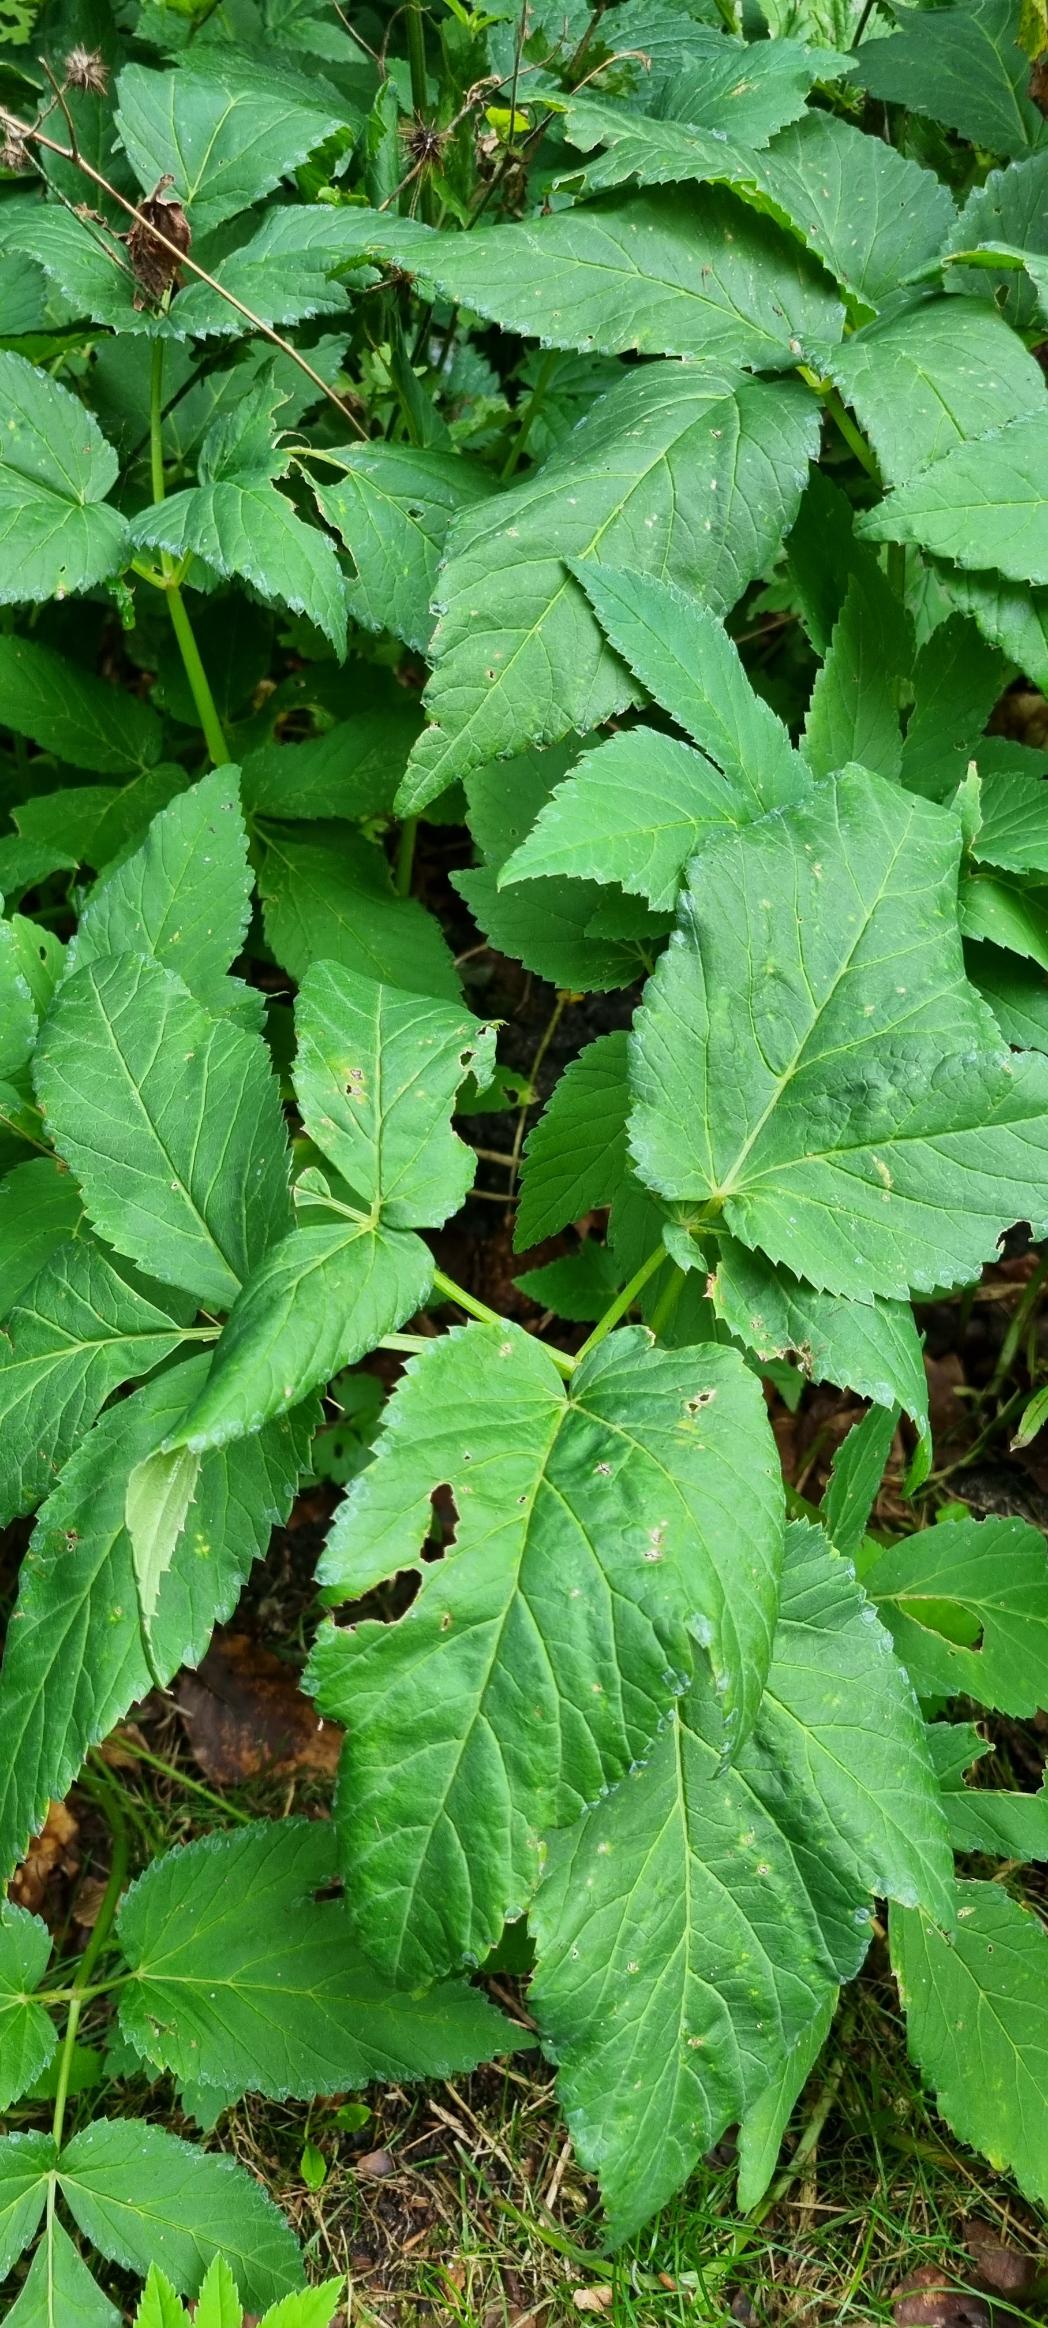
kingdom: Plantae
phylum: Tracheophyta
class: Magnoliopsida
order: Apiales
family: Apiaceae
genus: Aegopodium
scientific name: Aegopodium podagraria
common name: Skvalderkål
